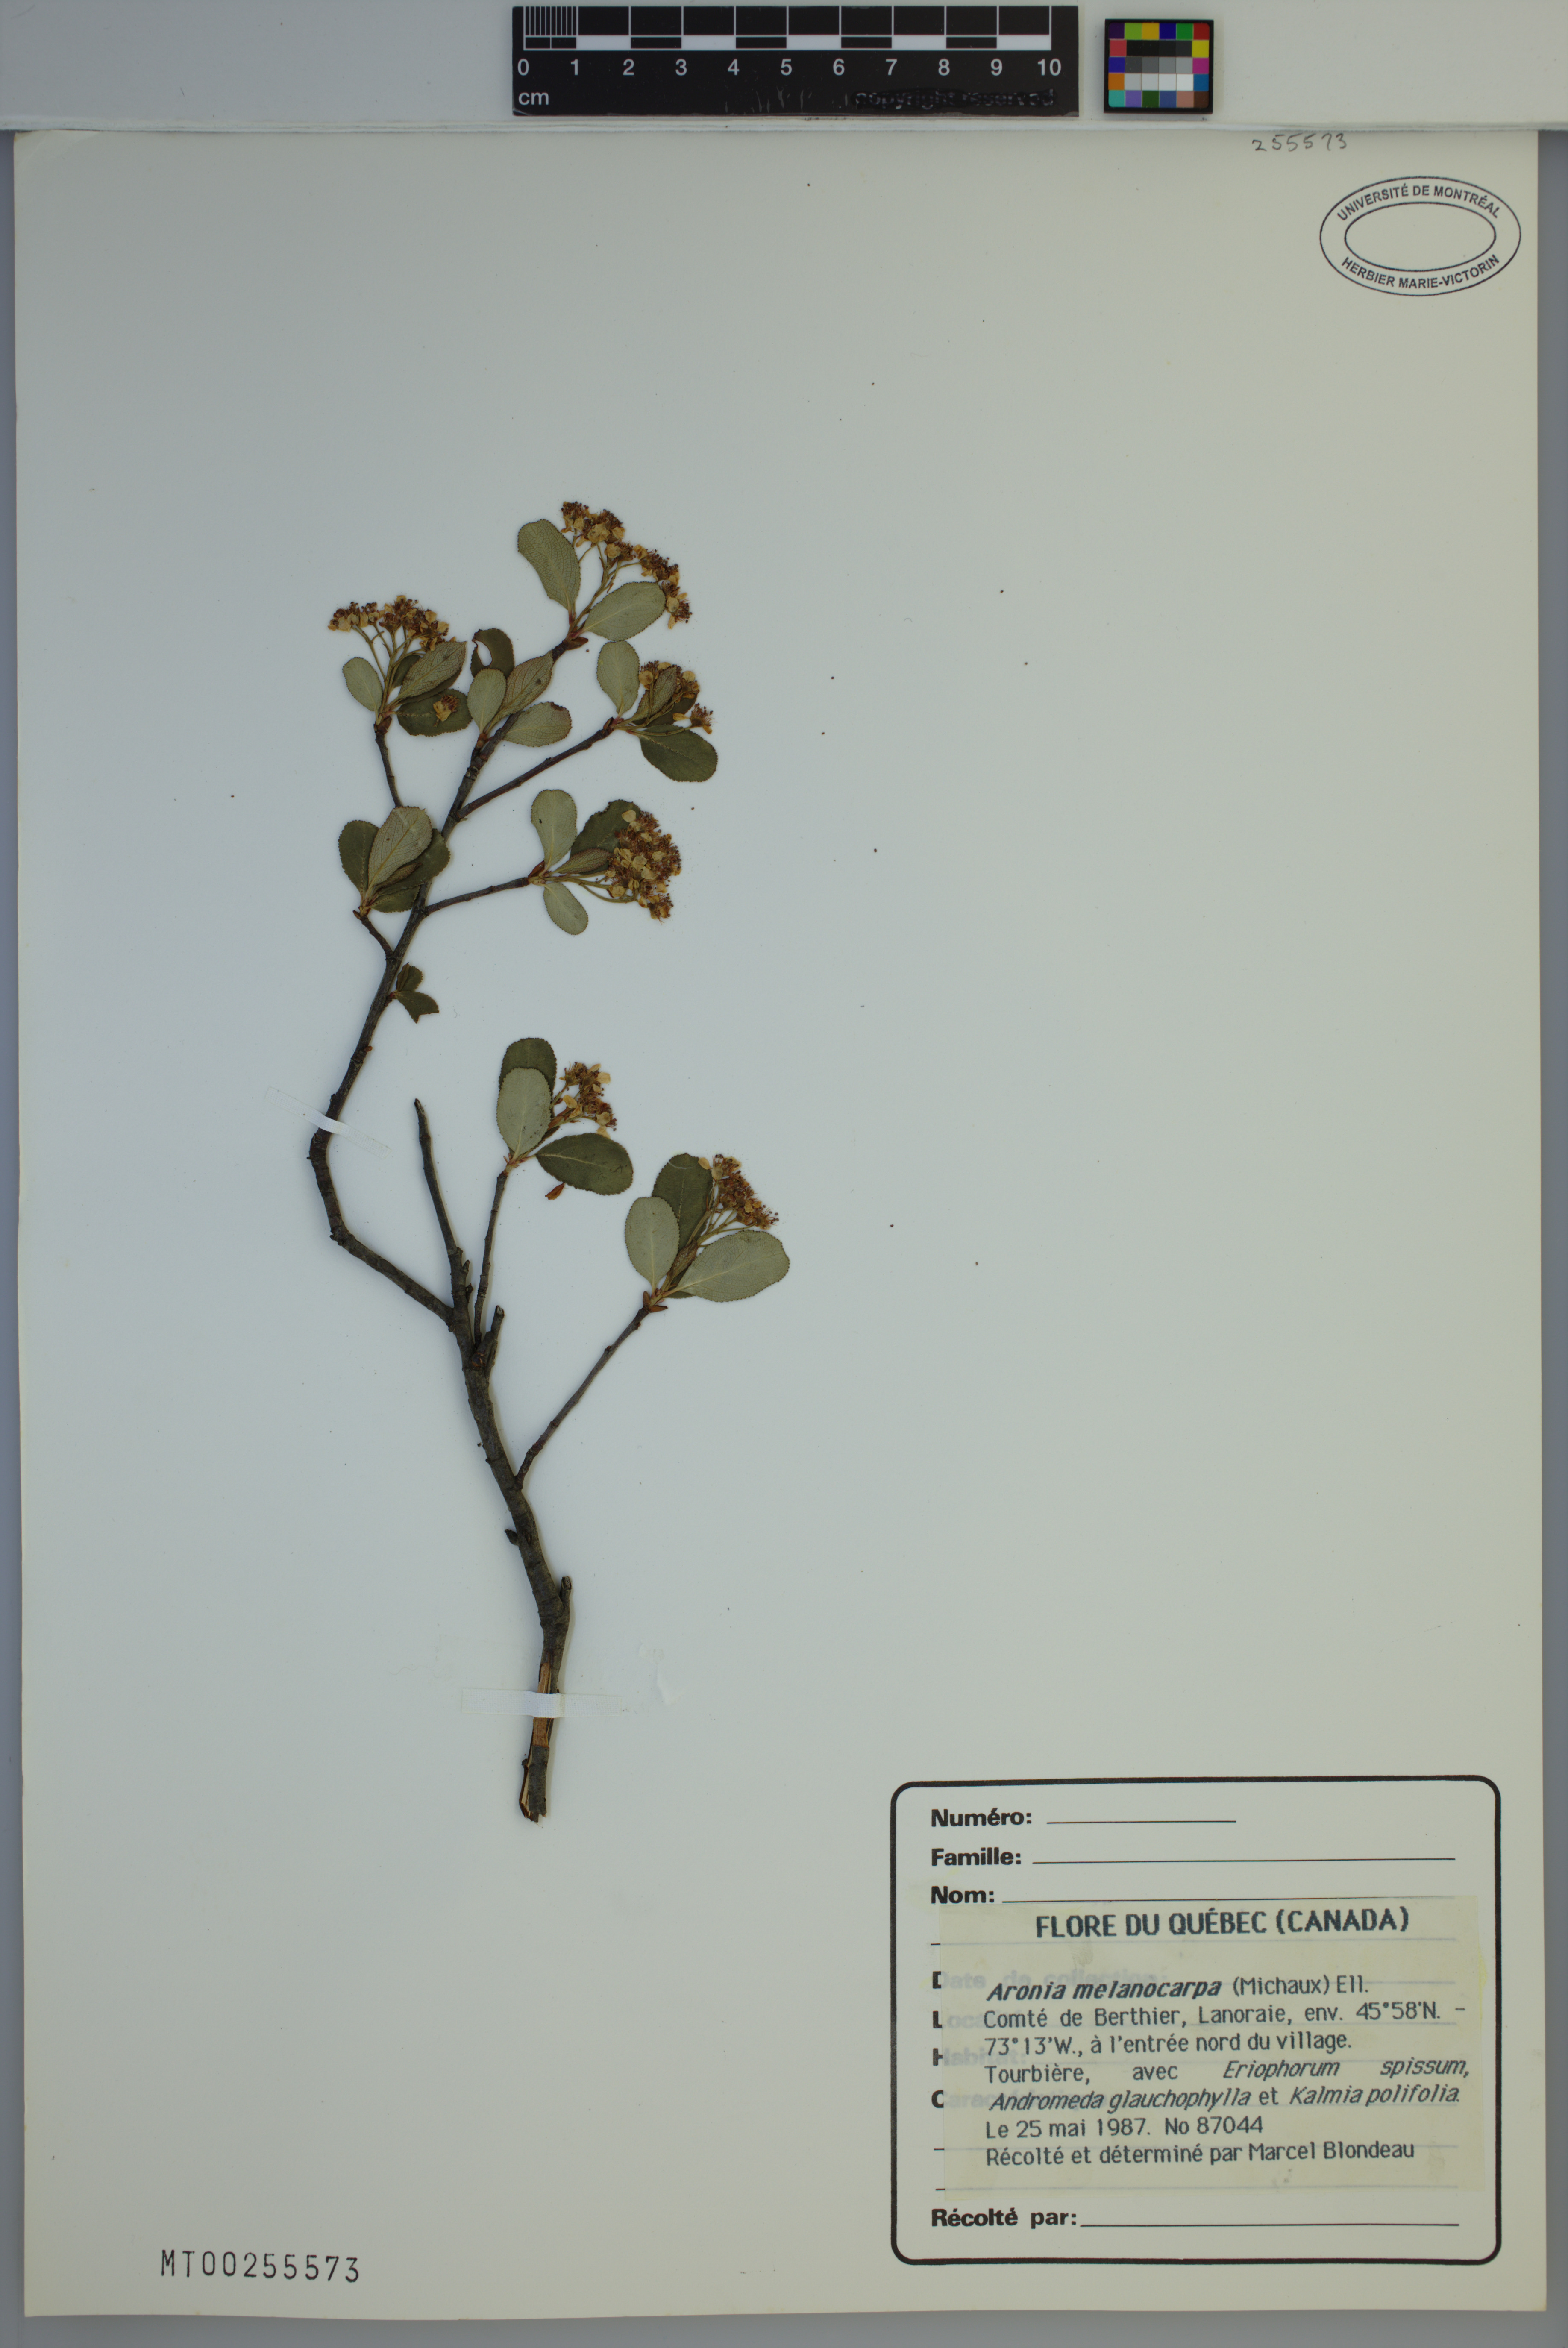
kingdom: Plantae
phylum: Tracheophyta
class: Magnoliopsida
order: Rosales
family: Rosaceae
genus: Aronia
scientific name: Aronia melanocarpa
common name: Black chokeberry
